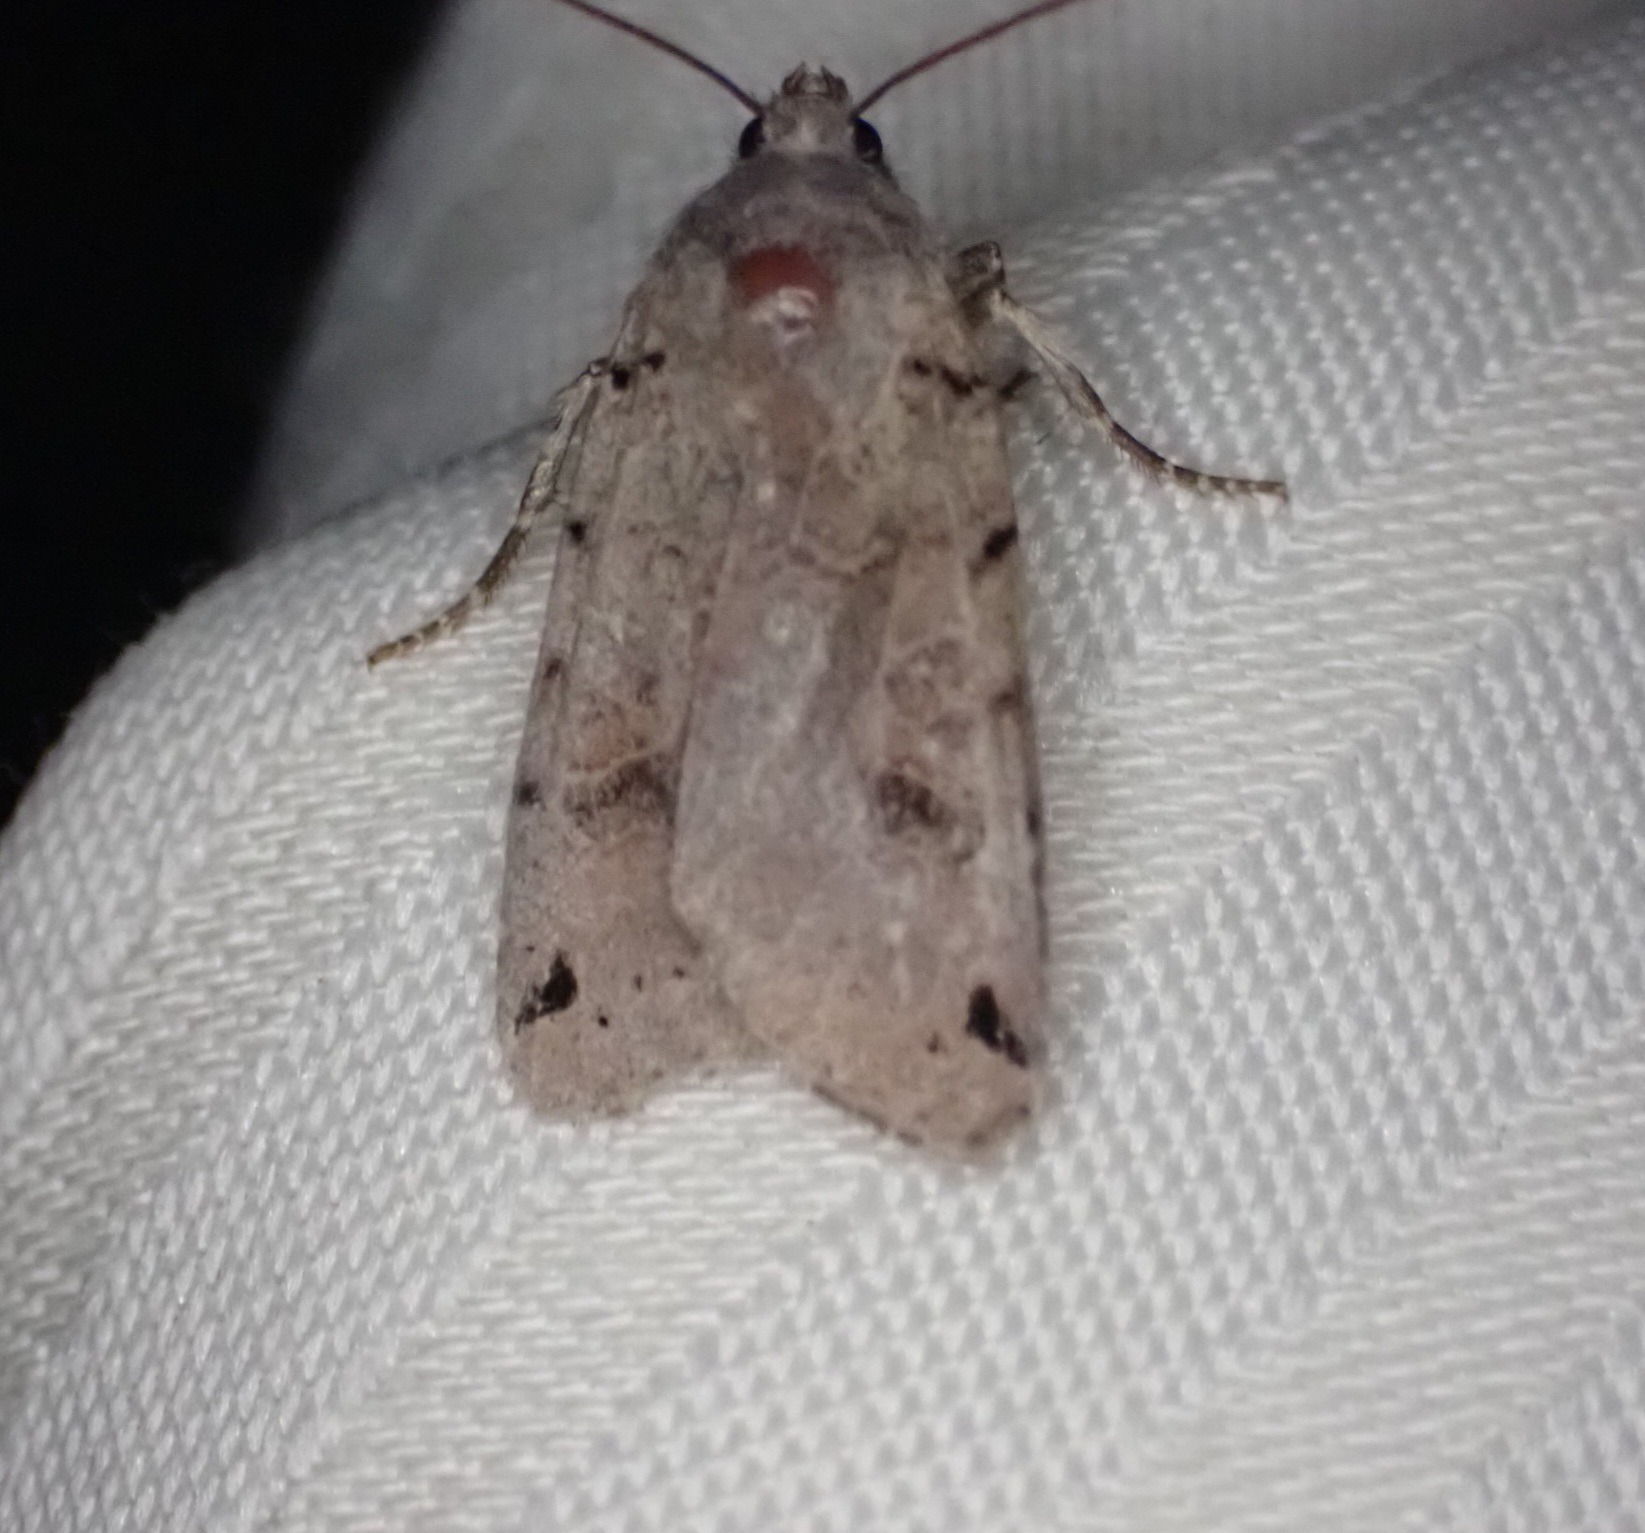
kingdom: Animalia
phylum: Arthropoda
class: Insecta
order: Lepidoptera
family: Noctuidae
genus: Agrochola
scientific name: Agrochola litura
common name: Kantplettet jordfarveugle
